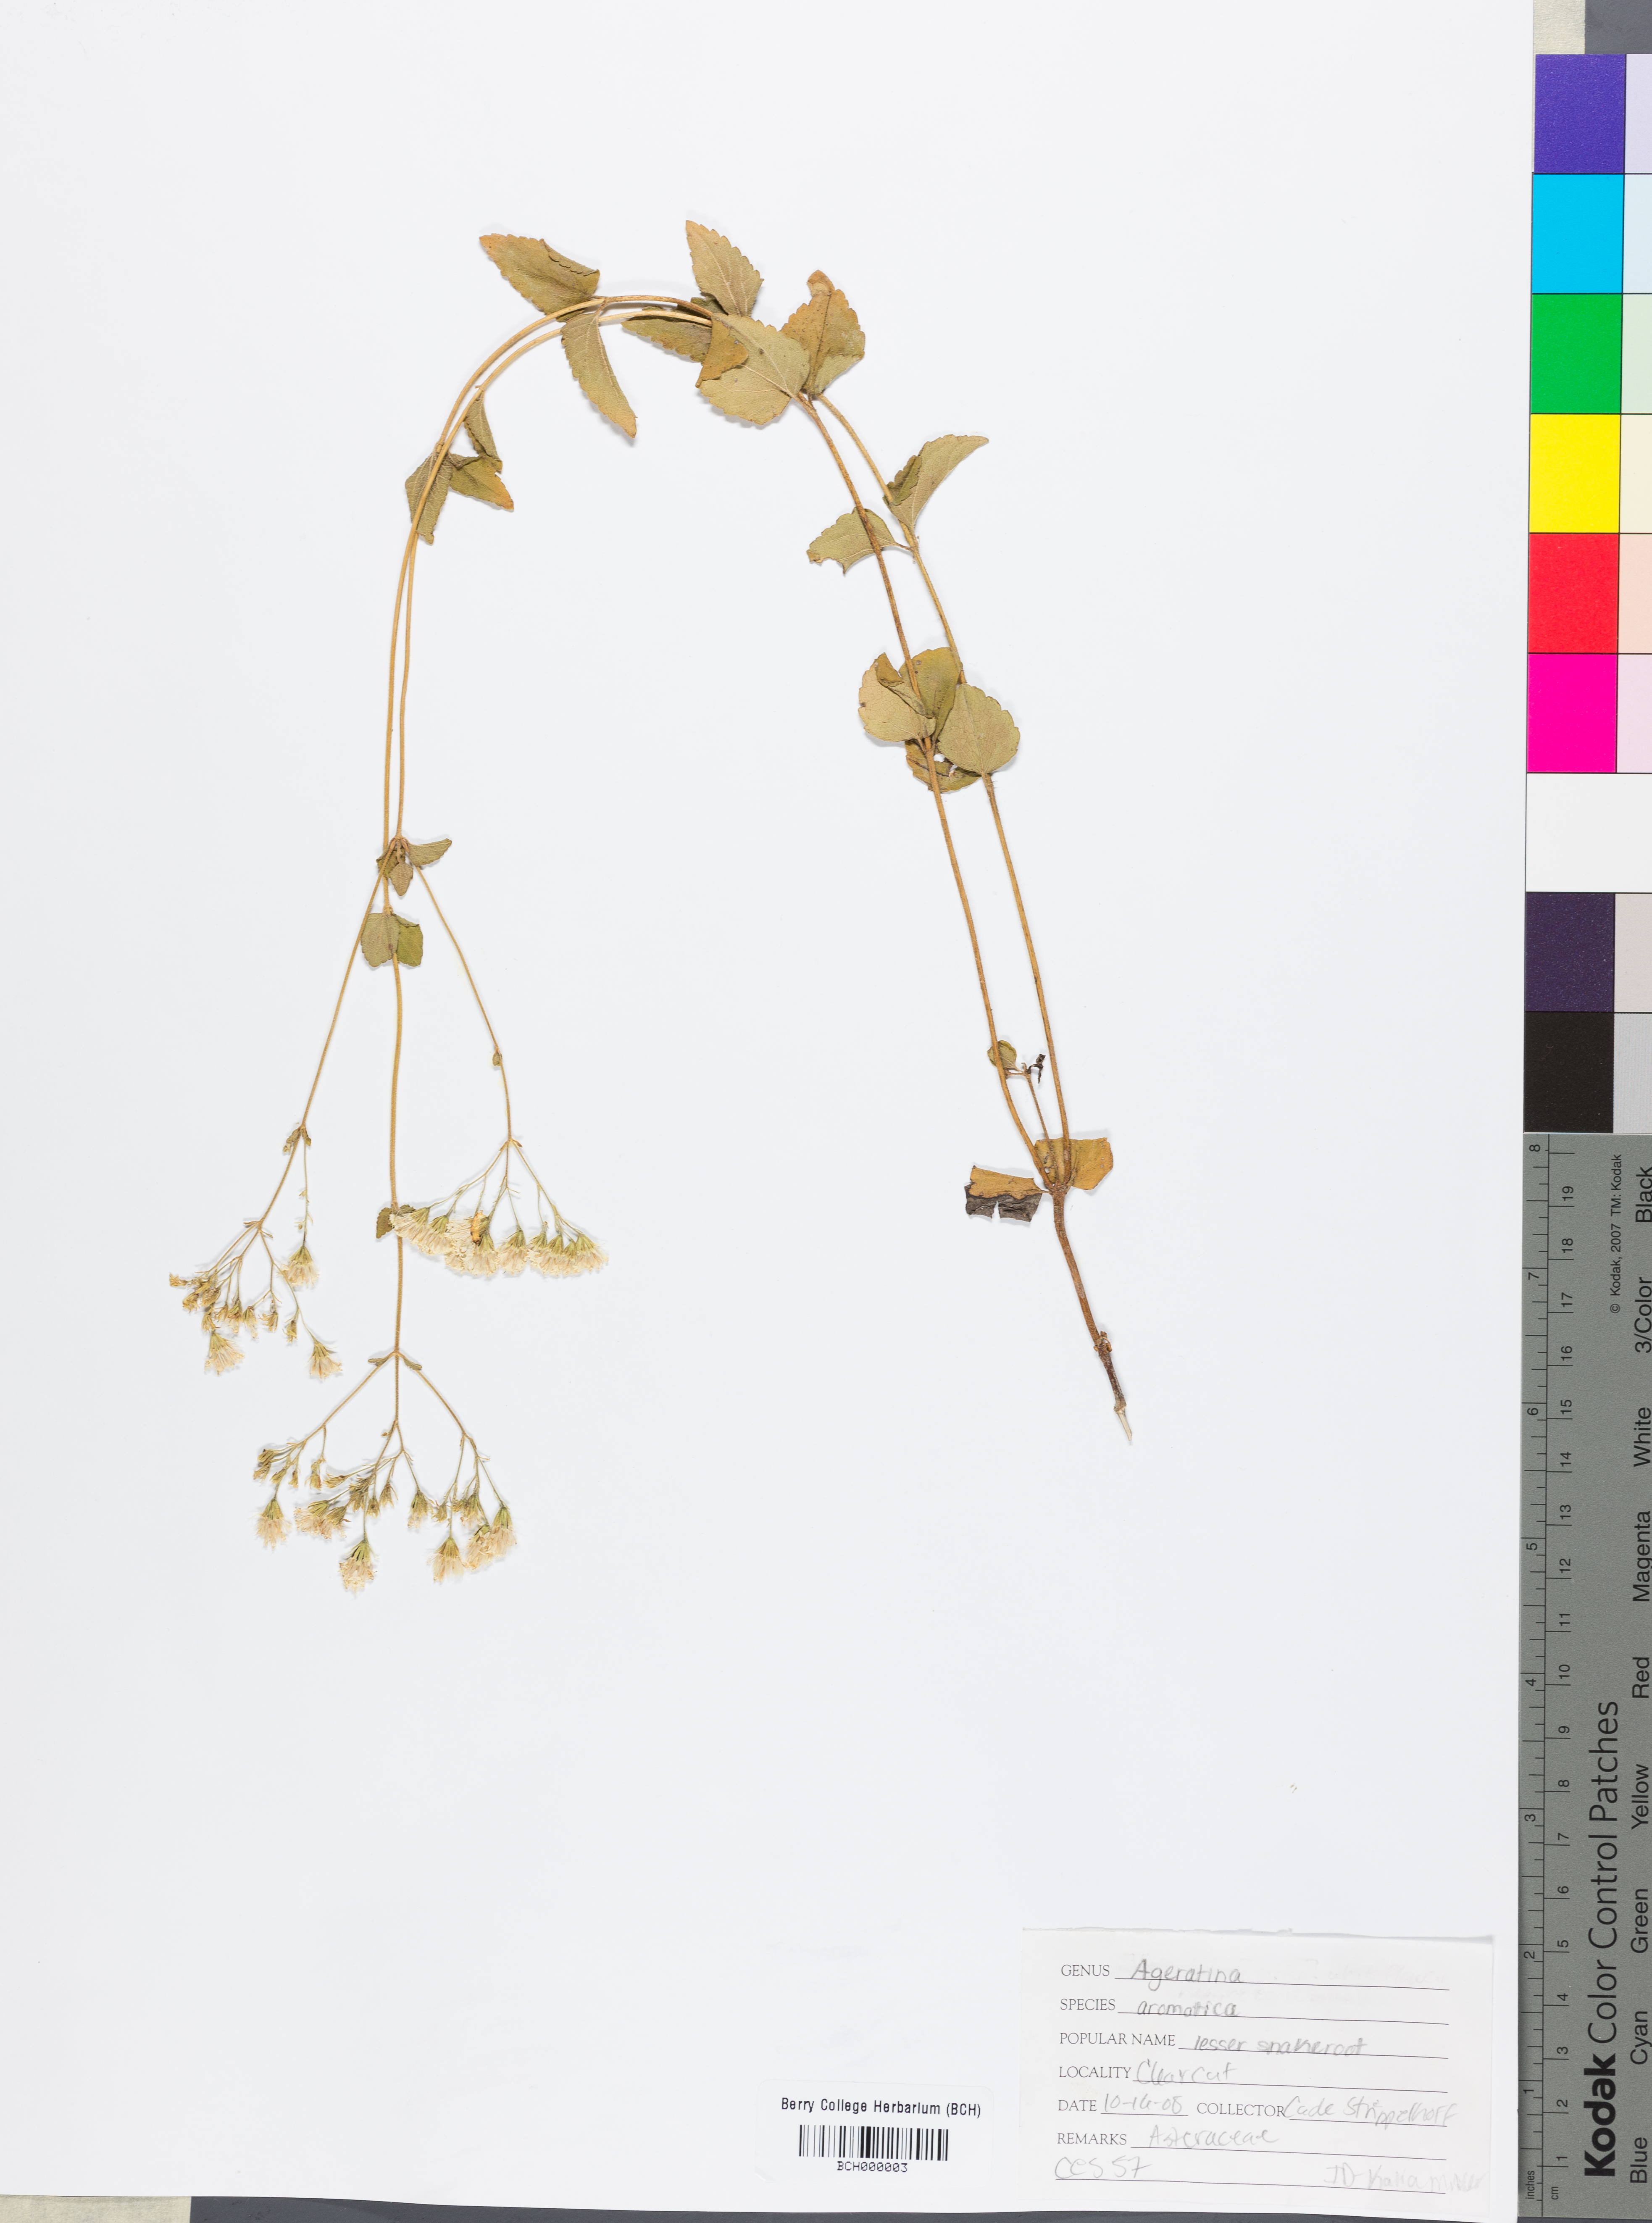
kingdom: Plantae
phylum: Tracheophyta
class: Magnoliopsida
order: Asterales
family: Asteraceae
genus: Ageratina
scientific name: Ageratina aromatica
